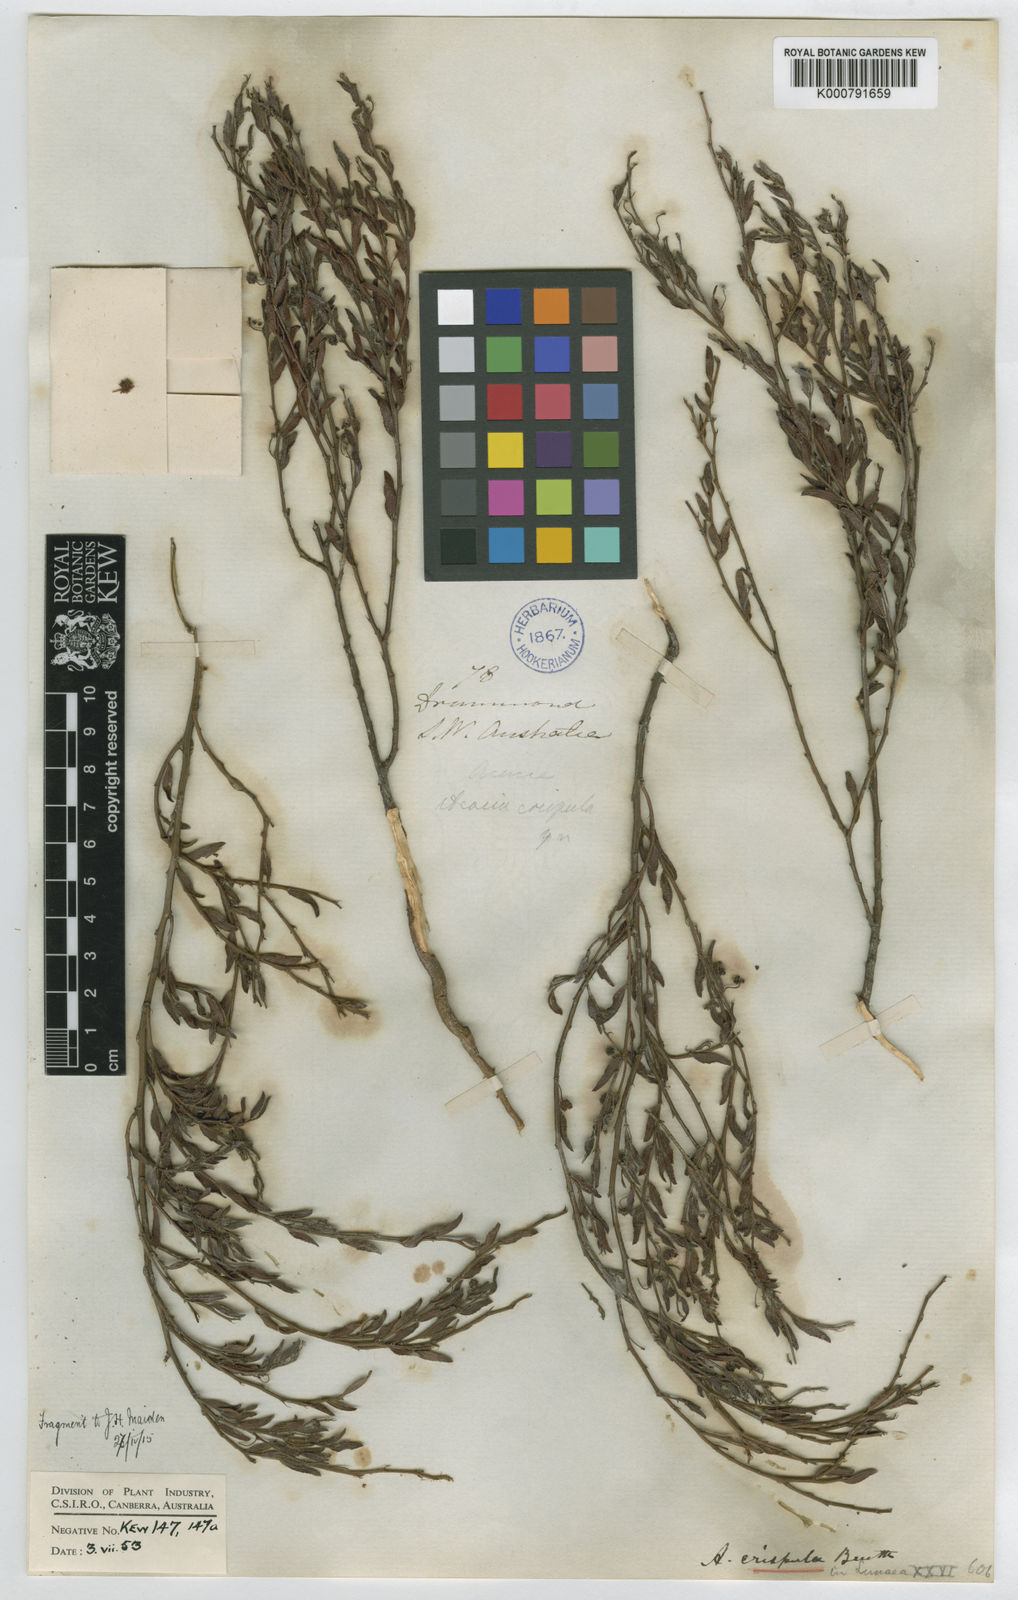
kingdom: Plantae
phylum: Tracheophyta
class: Magnoliopsida
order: Fabales
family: Fabaceae
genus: Acacia
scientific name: Acacia
